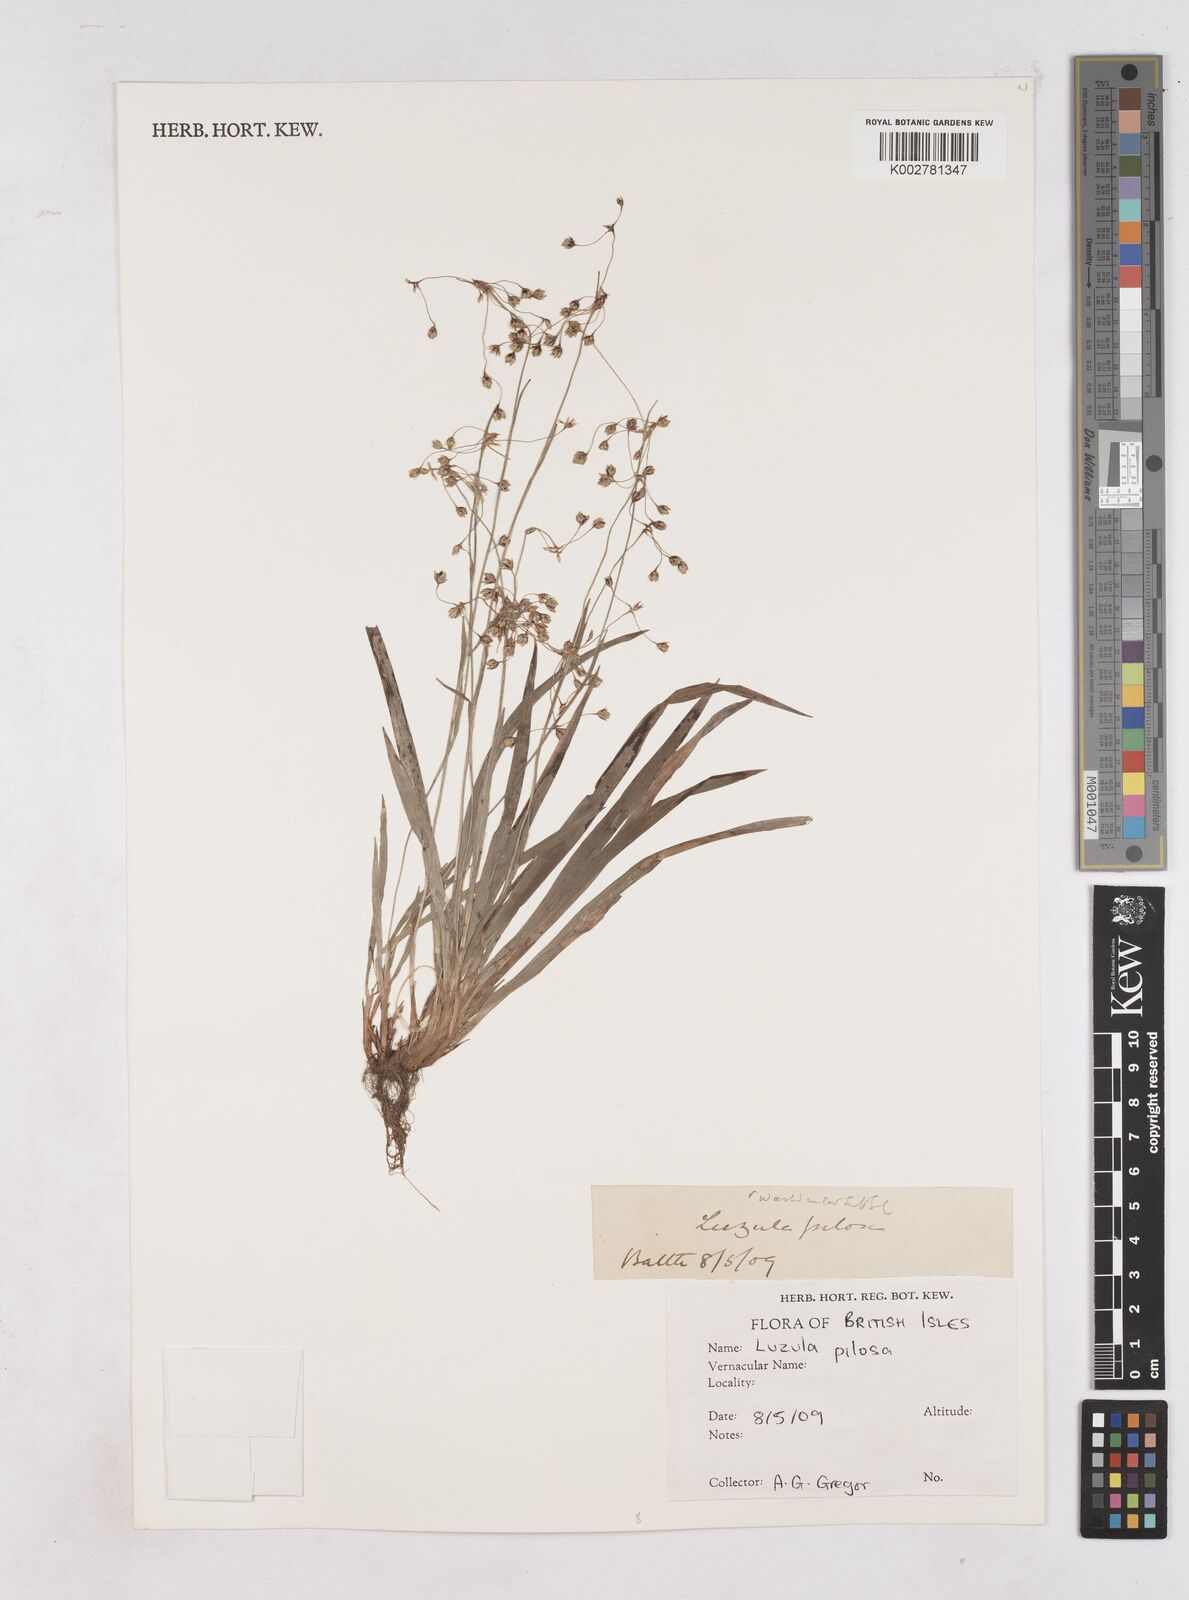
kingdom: Plantae
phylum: Tracheophyta
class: Liliopsida
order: Poales
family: Juncaceae
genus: Luzula
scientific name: Luzula pilosa
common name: Hairy wood-rush
